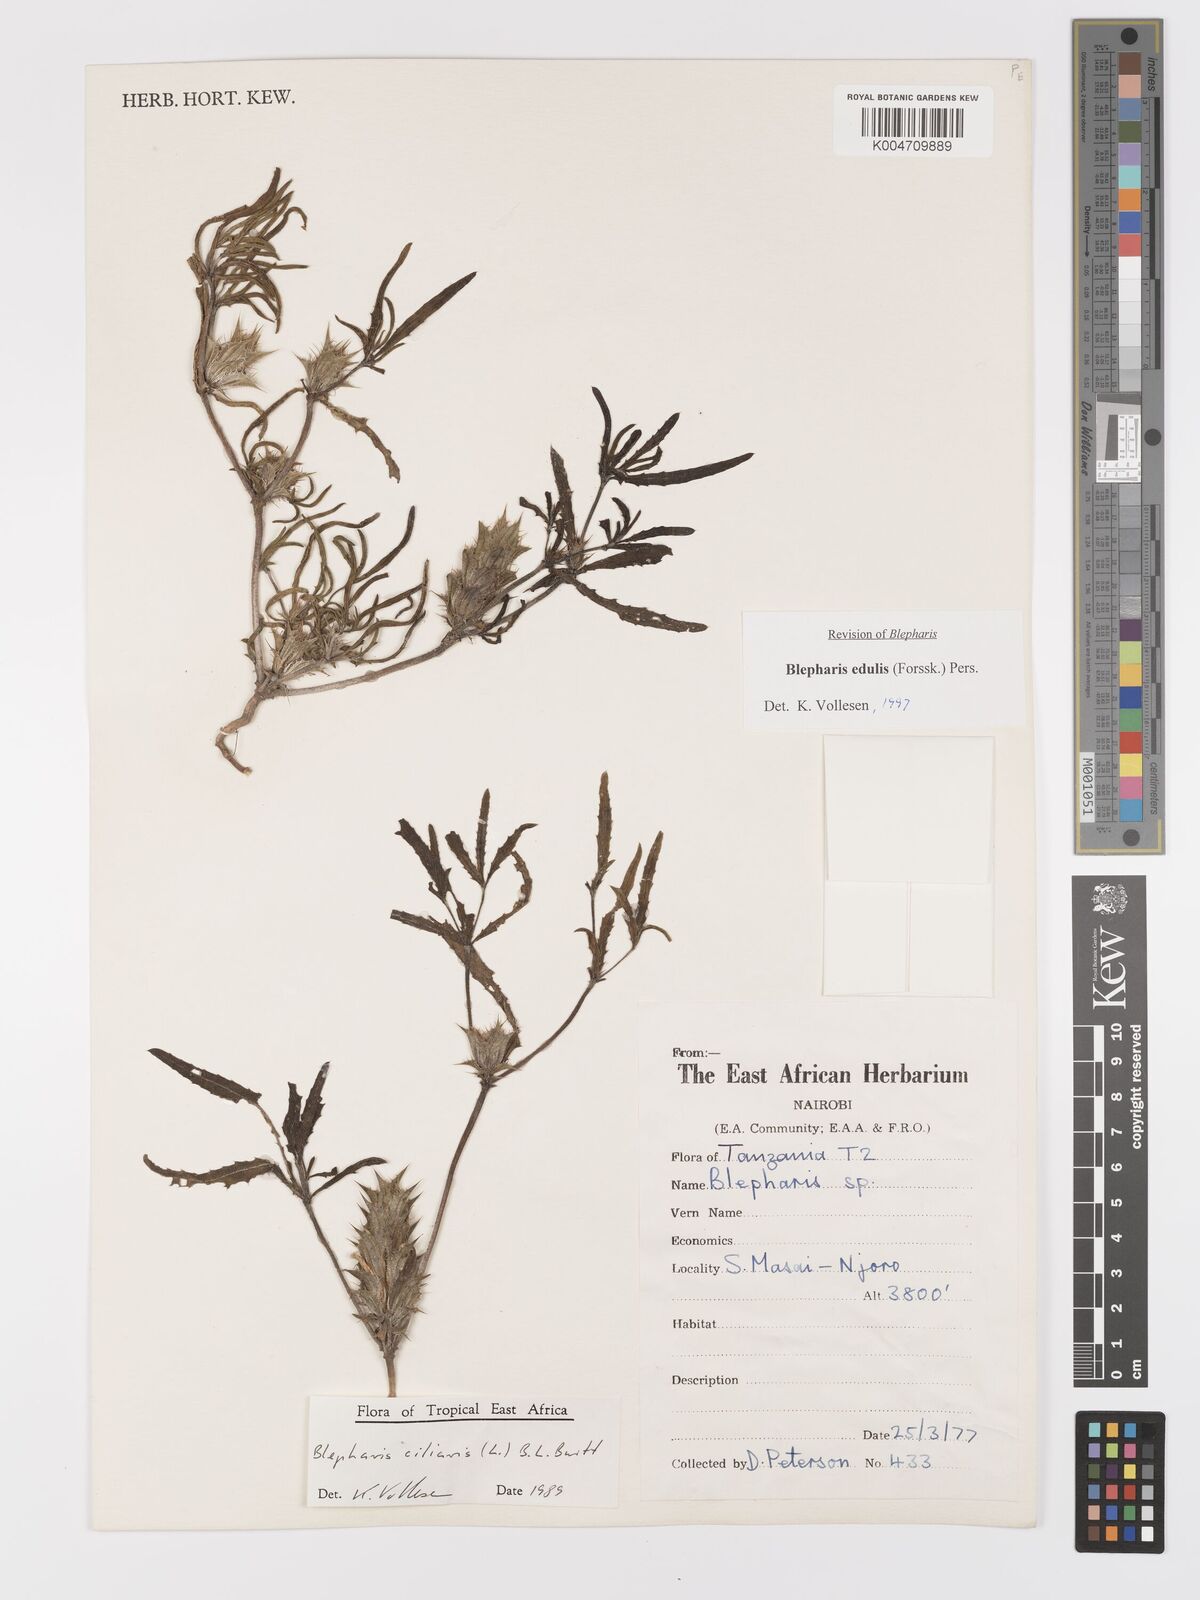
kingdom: Plantae
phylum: Tracheophyta
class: Magnoliopsida
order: Lamiales
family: Acanthaceae
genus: Blepharis
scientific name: Blepharis edulis
